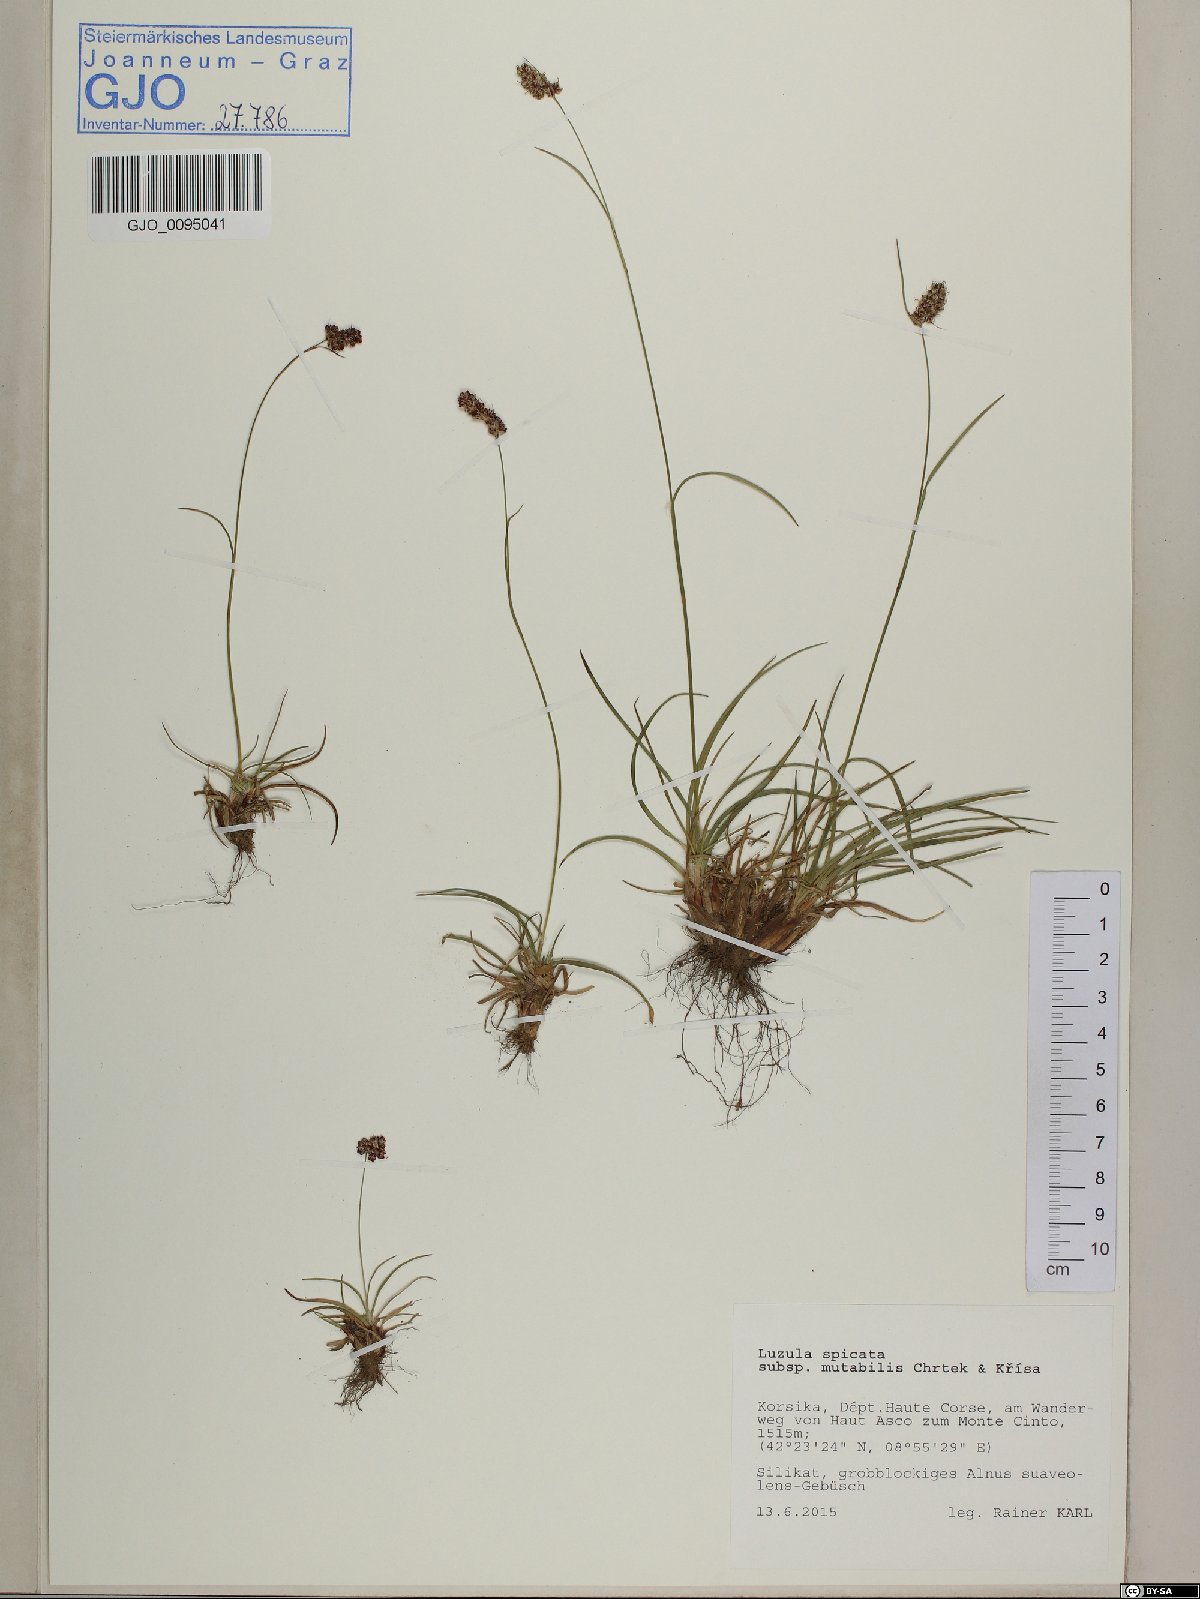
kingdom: Plantae
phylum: Tracheophyta
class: Liliopsida
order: Poales
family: Juncaceae
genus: Luzula
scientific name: Luzula spicata
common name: Spiked wood-rush
